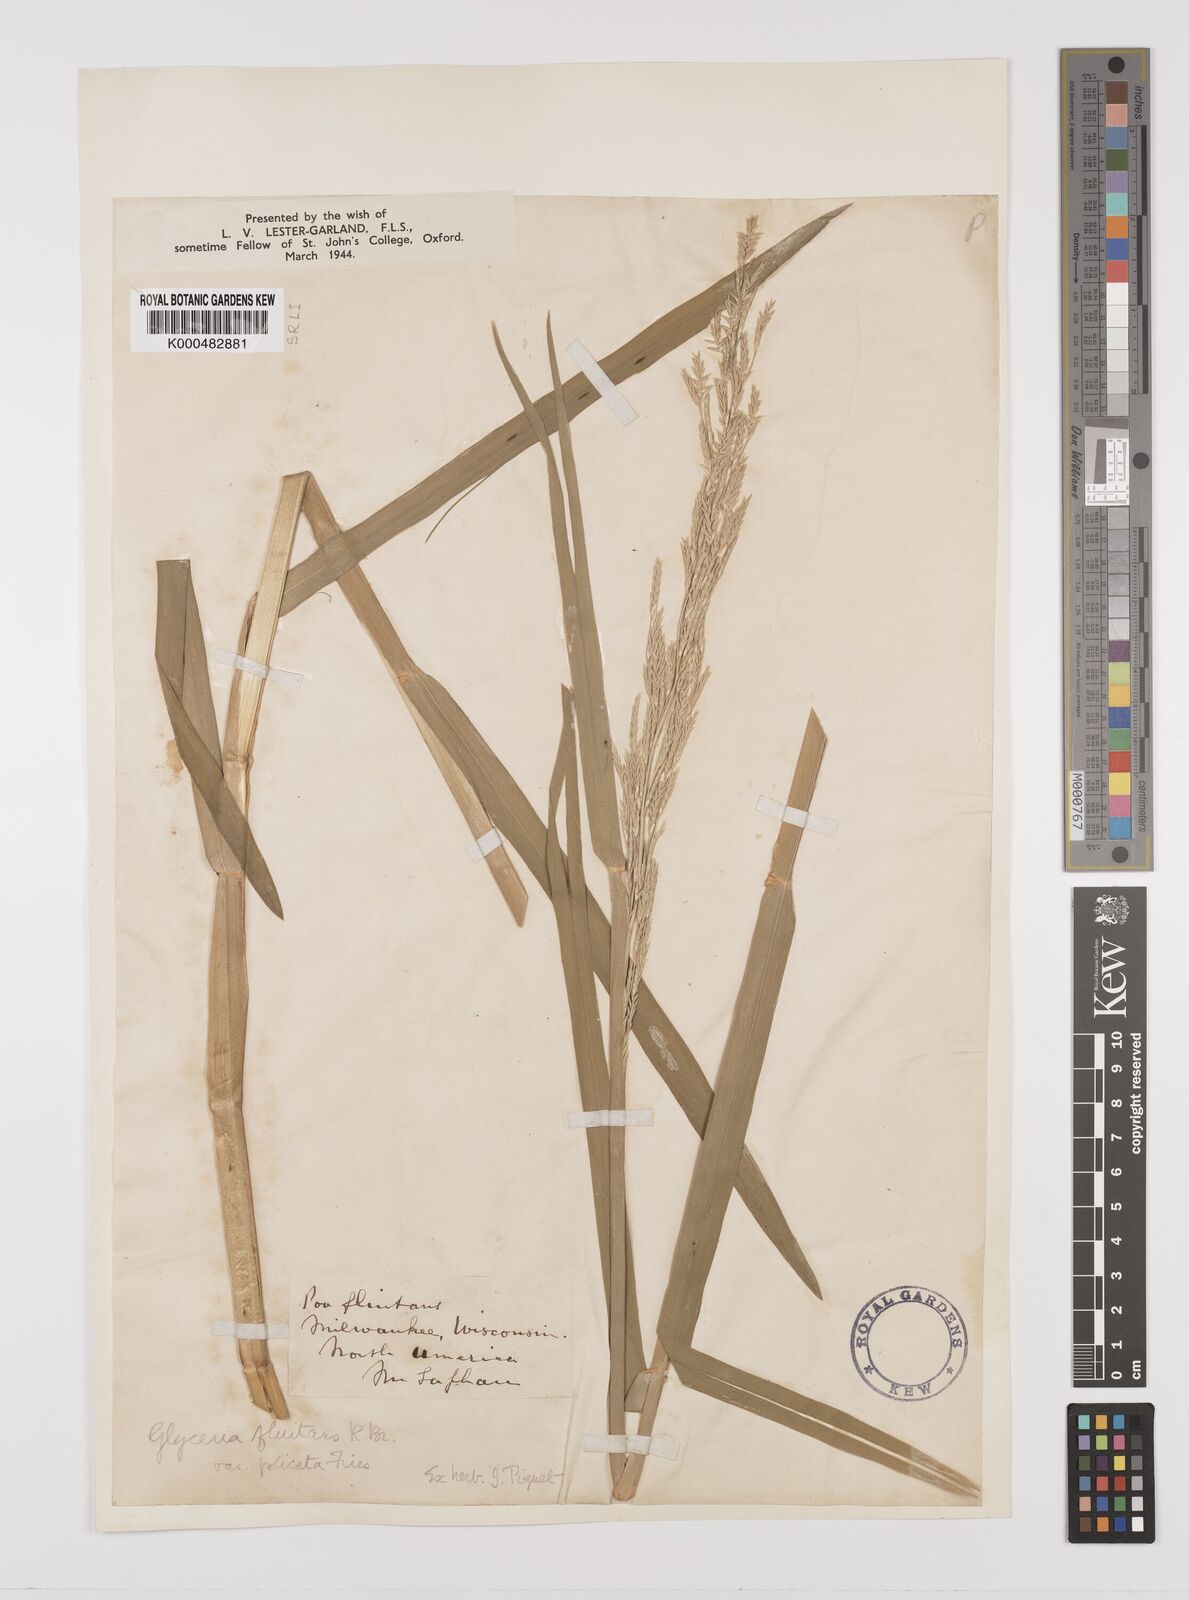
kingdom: Plantae
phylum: Tracheophyta
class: Liliopsida
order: Poales
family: Poaceae
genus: Glyceria
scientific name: Glyceria septentrionalis
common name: Eastern mannagrass
